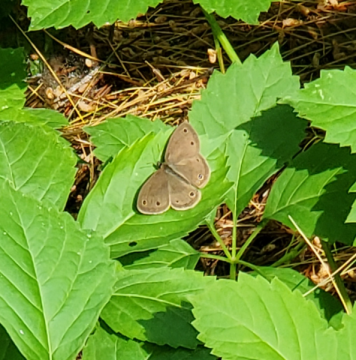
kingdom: Animalia
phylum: Arthropoda
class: Insecta
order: Lepidoptera
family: Nymphalidae
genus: Euptychia
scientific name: Euptychia cymela
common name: Little Wood Satyr
